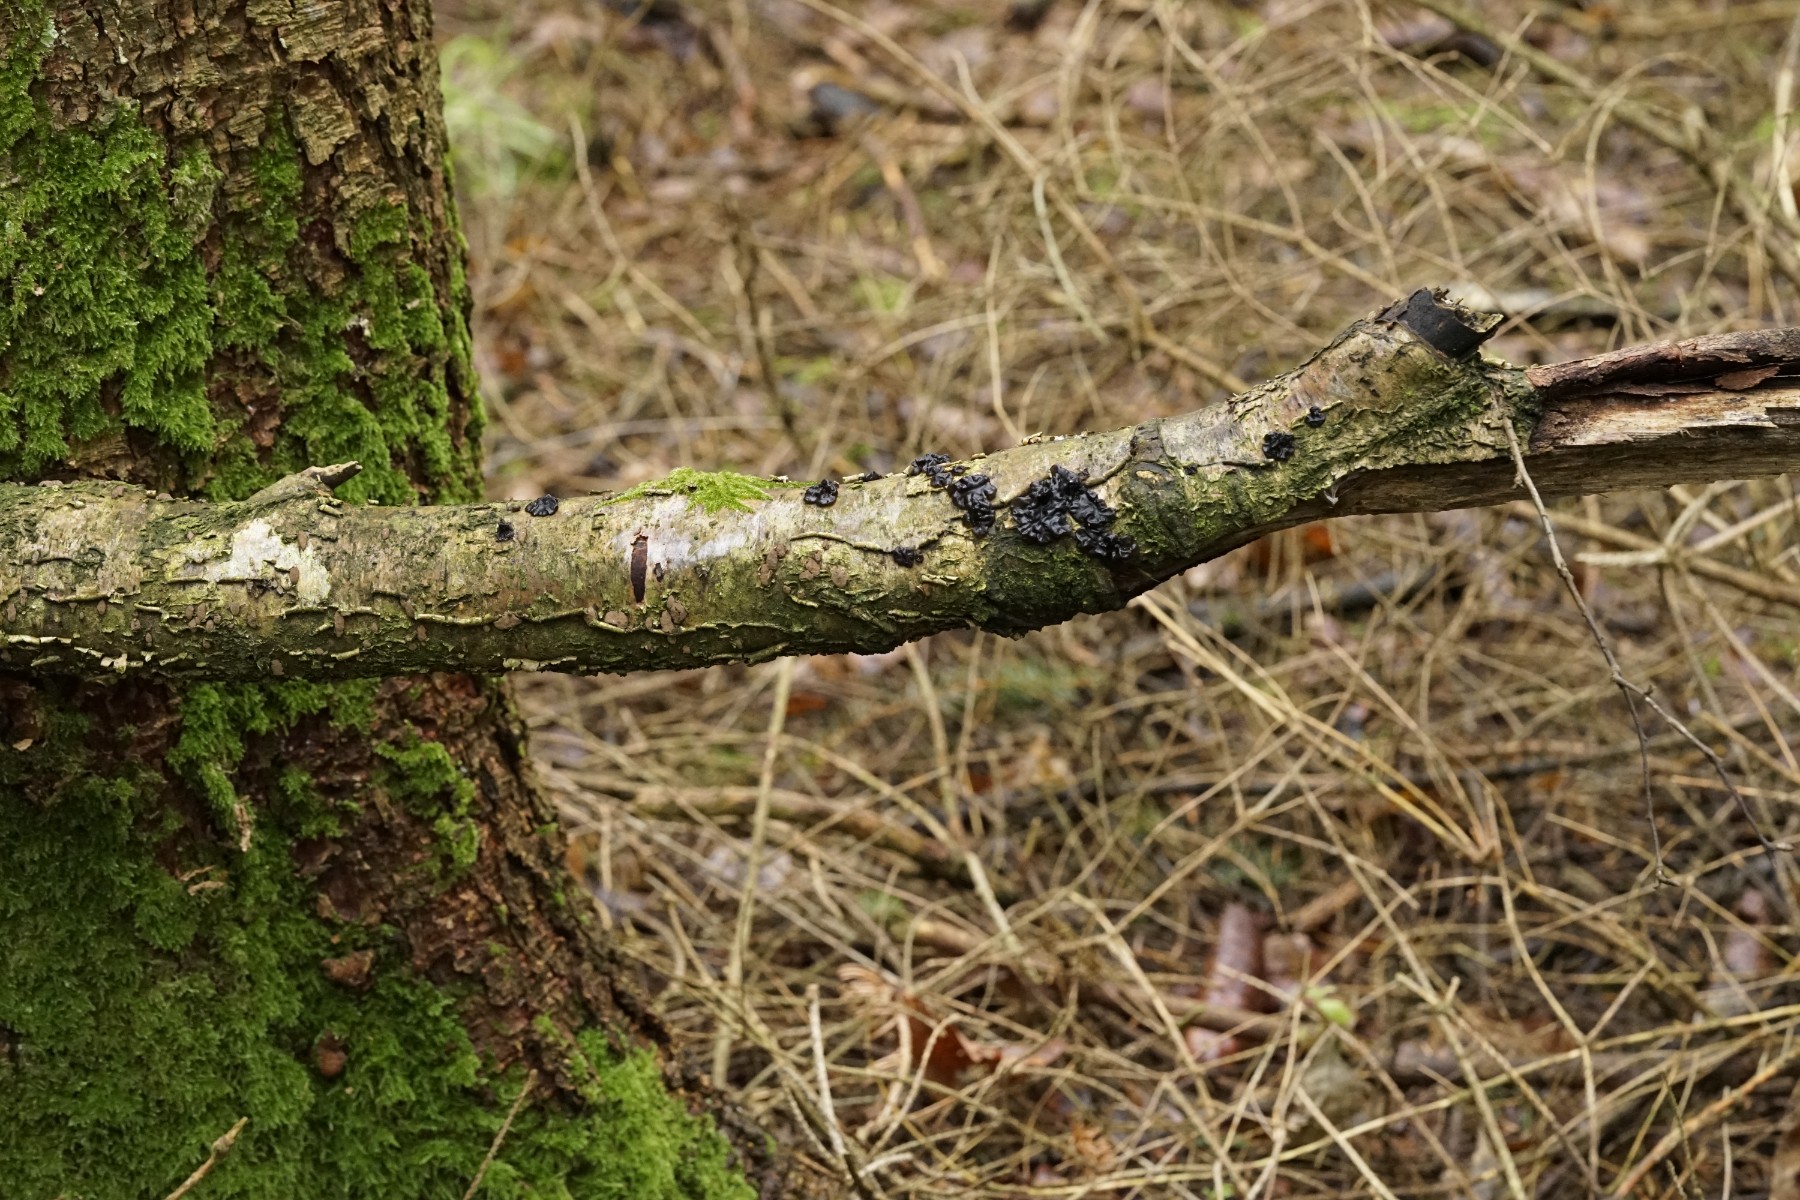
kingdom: Fungi
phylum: Basidiomycota
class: Agaricomycetes
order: Auriculariales
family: Auriculariaceae
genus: Exidia
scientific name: Exidia nigricans
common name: almindelig bævretop
